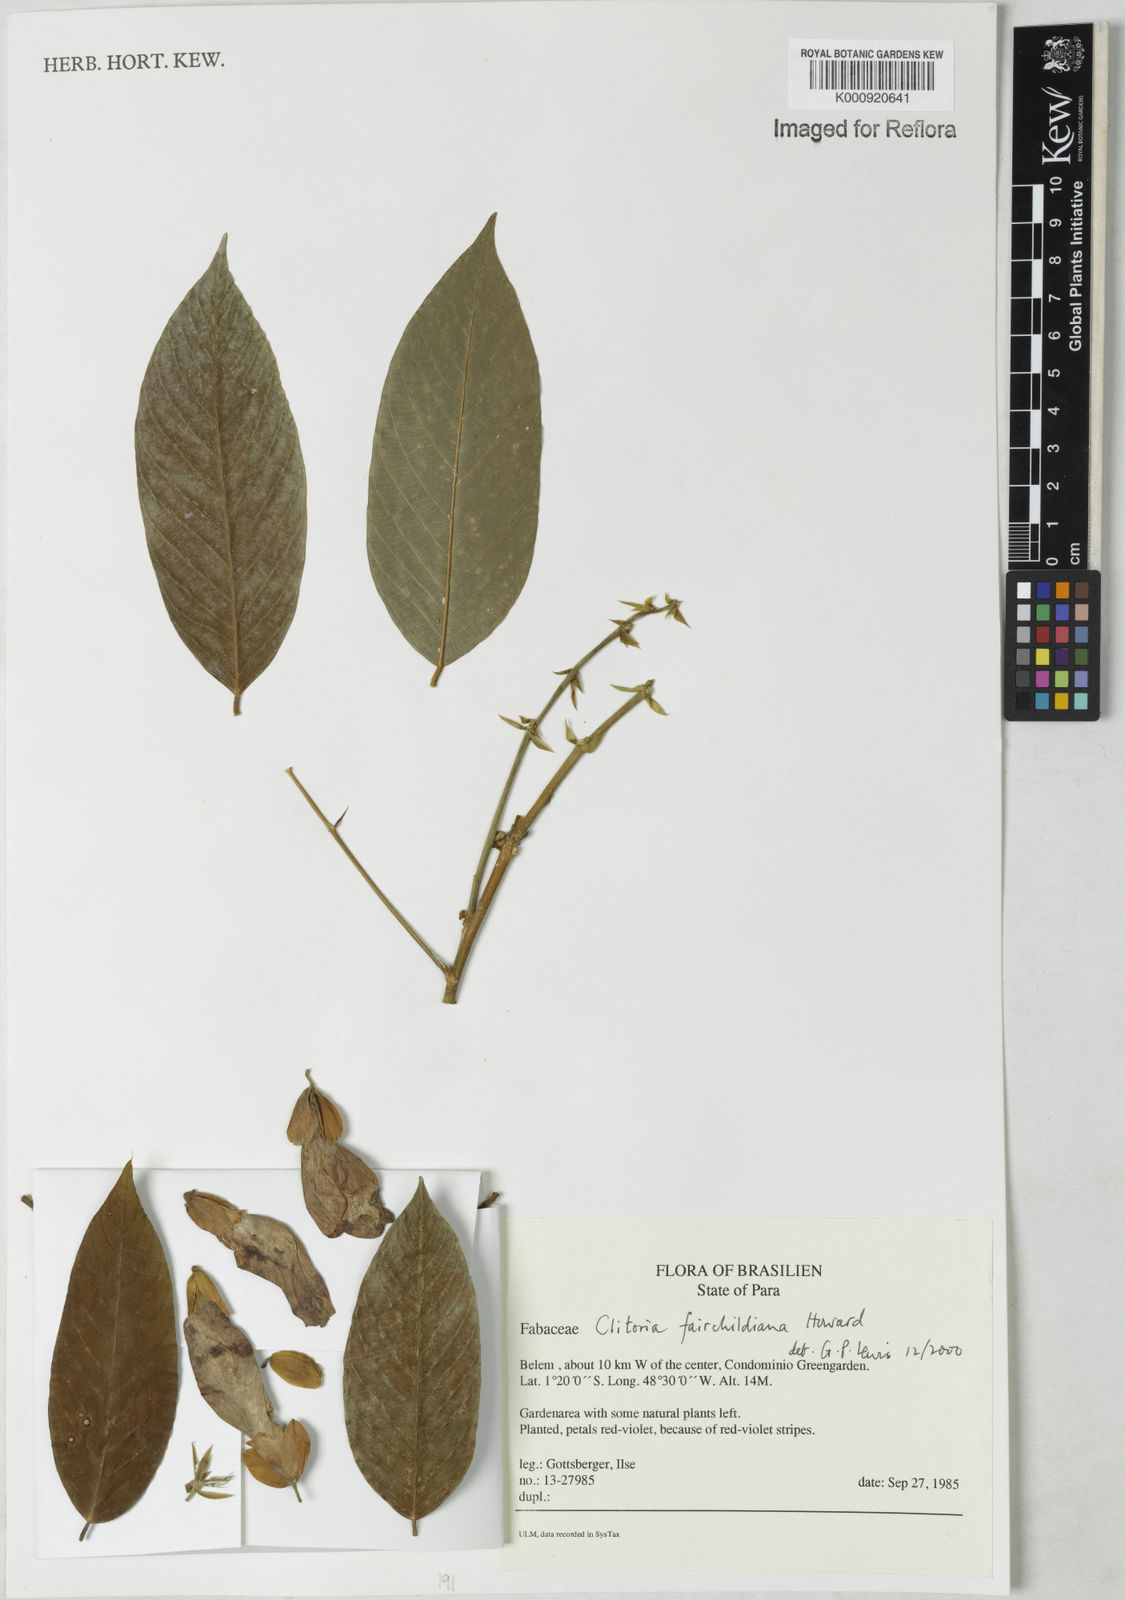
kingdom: Plantae
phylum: Tracheophyta
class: Magnoliopsida
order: Fabales
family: Fabaceae
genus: Clitoria
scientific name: Clitoria fairchildiana
